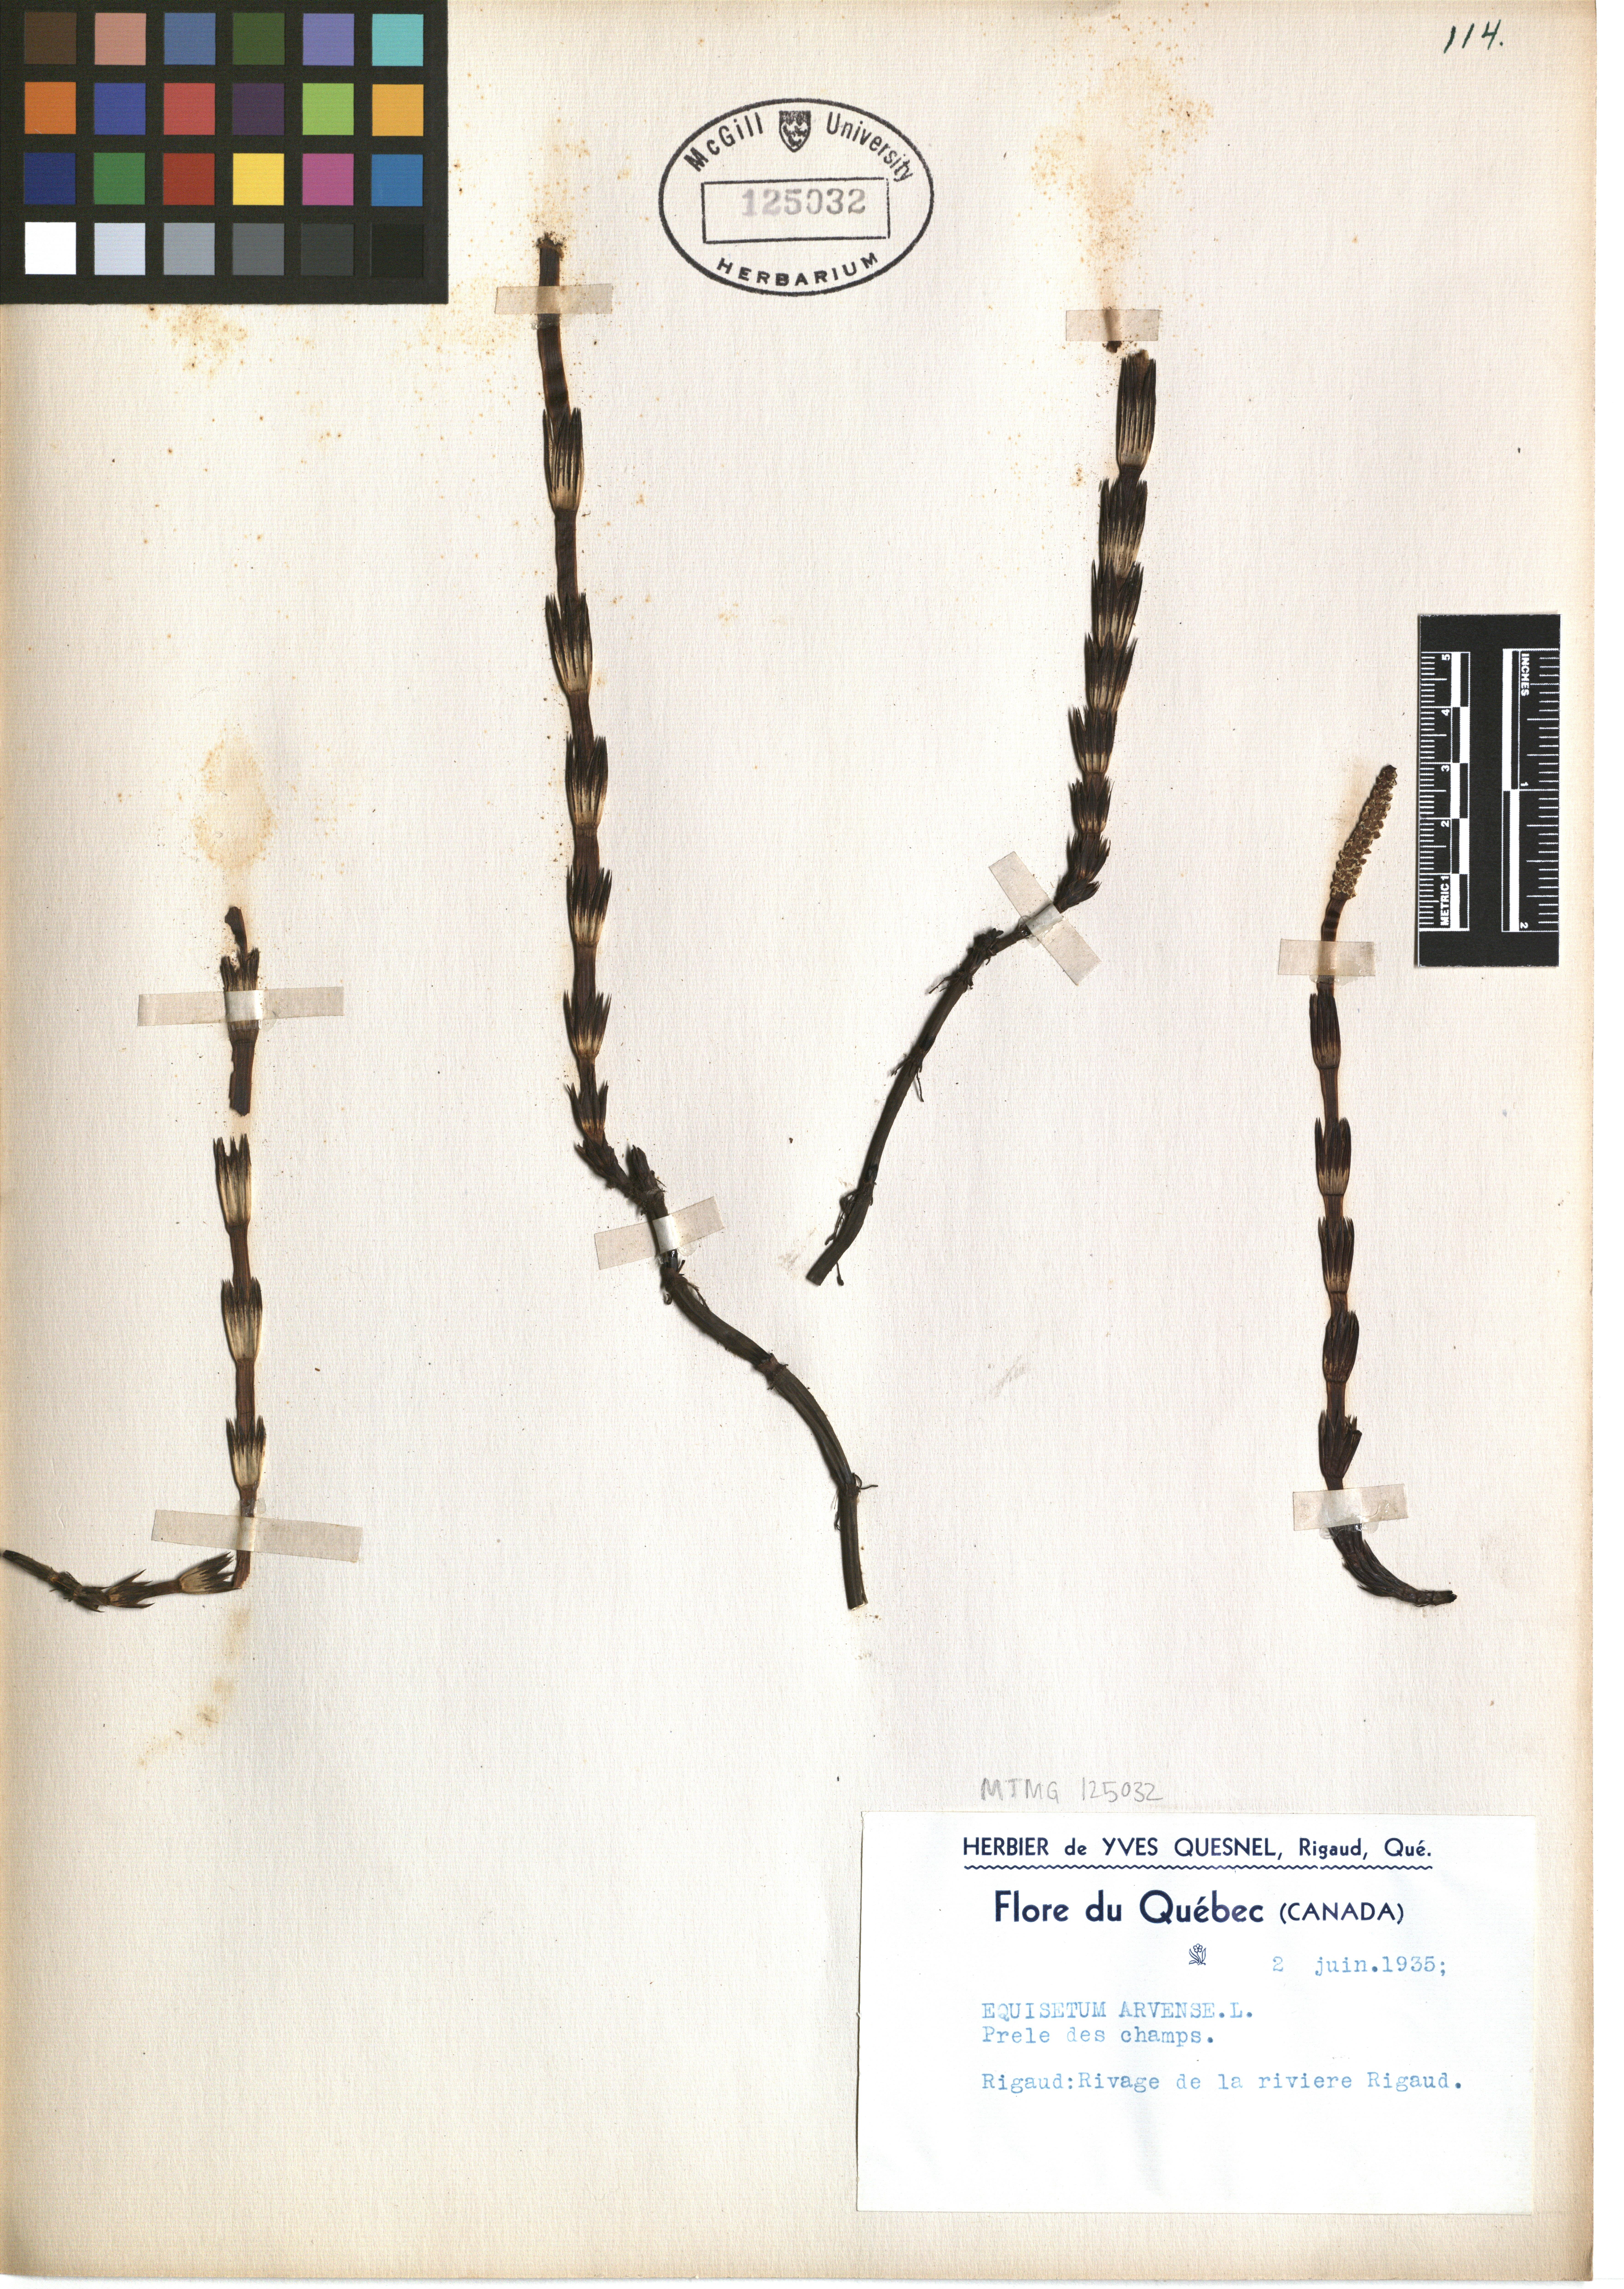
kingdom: Plantae
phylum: Tracheophyta
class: Polypodiopsida
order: Equisetales
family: Equisetaceae
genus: Equisetum
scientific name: Equisetum arvense
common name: Field horsetail
